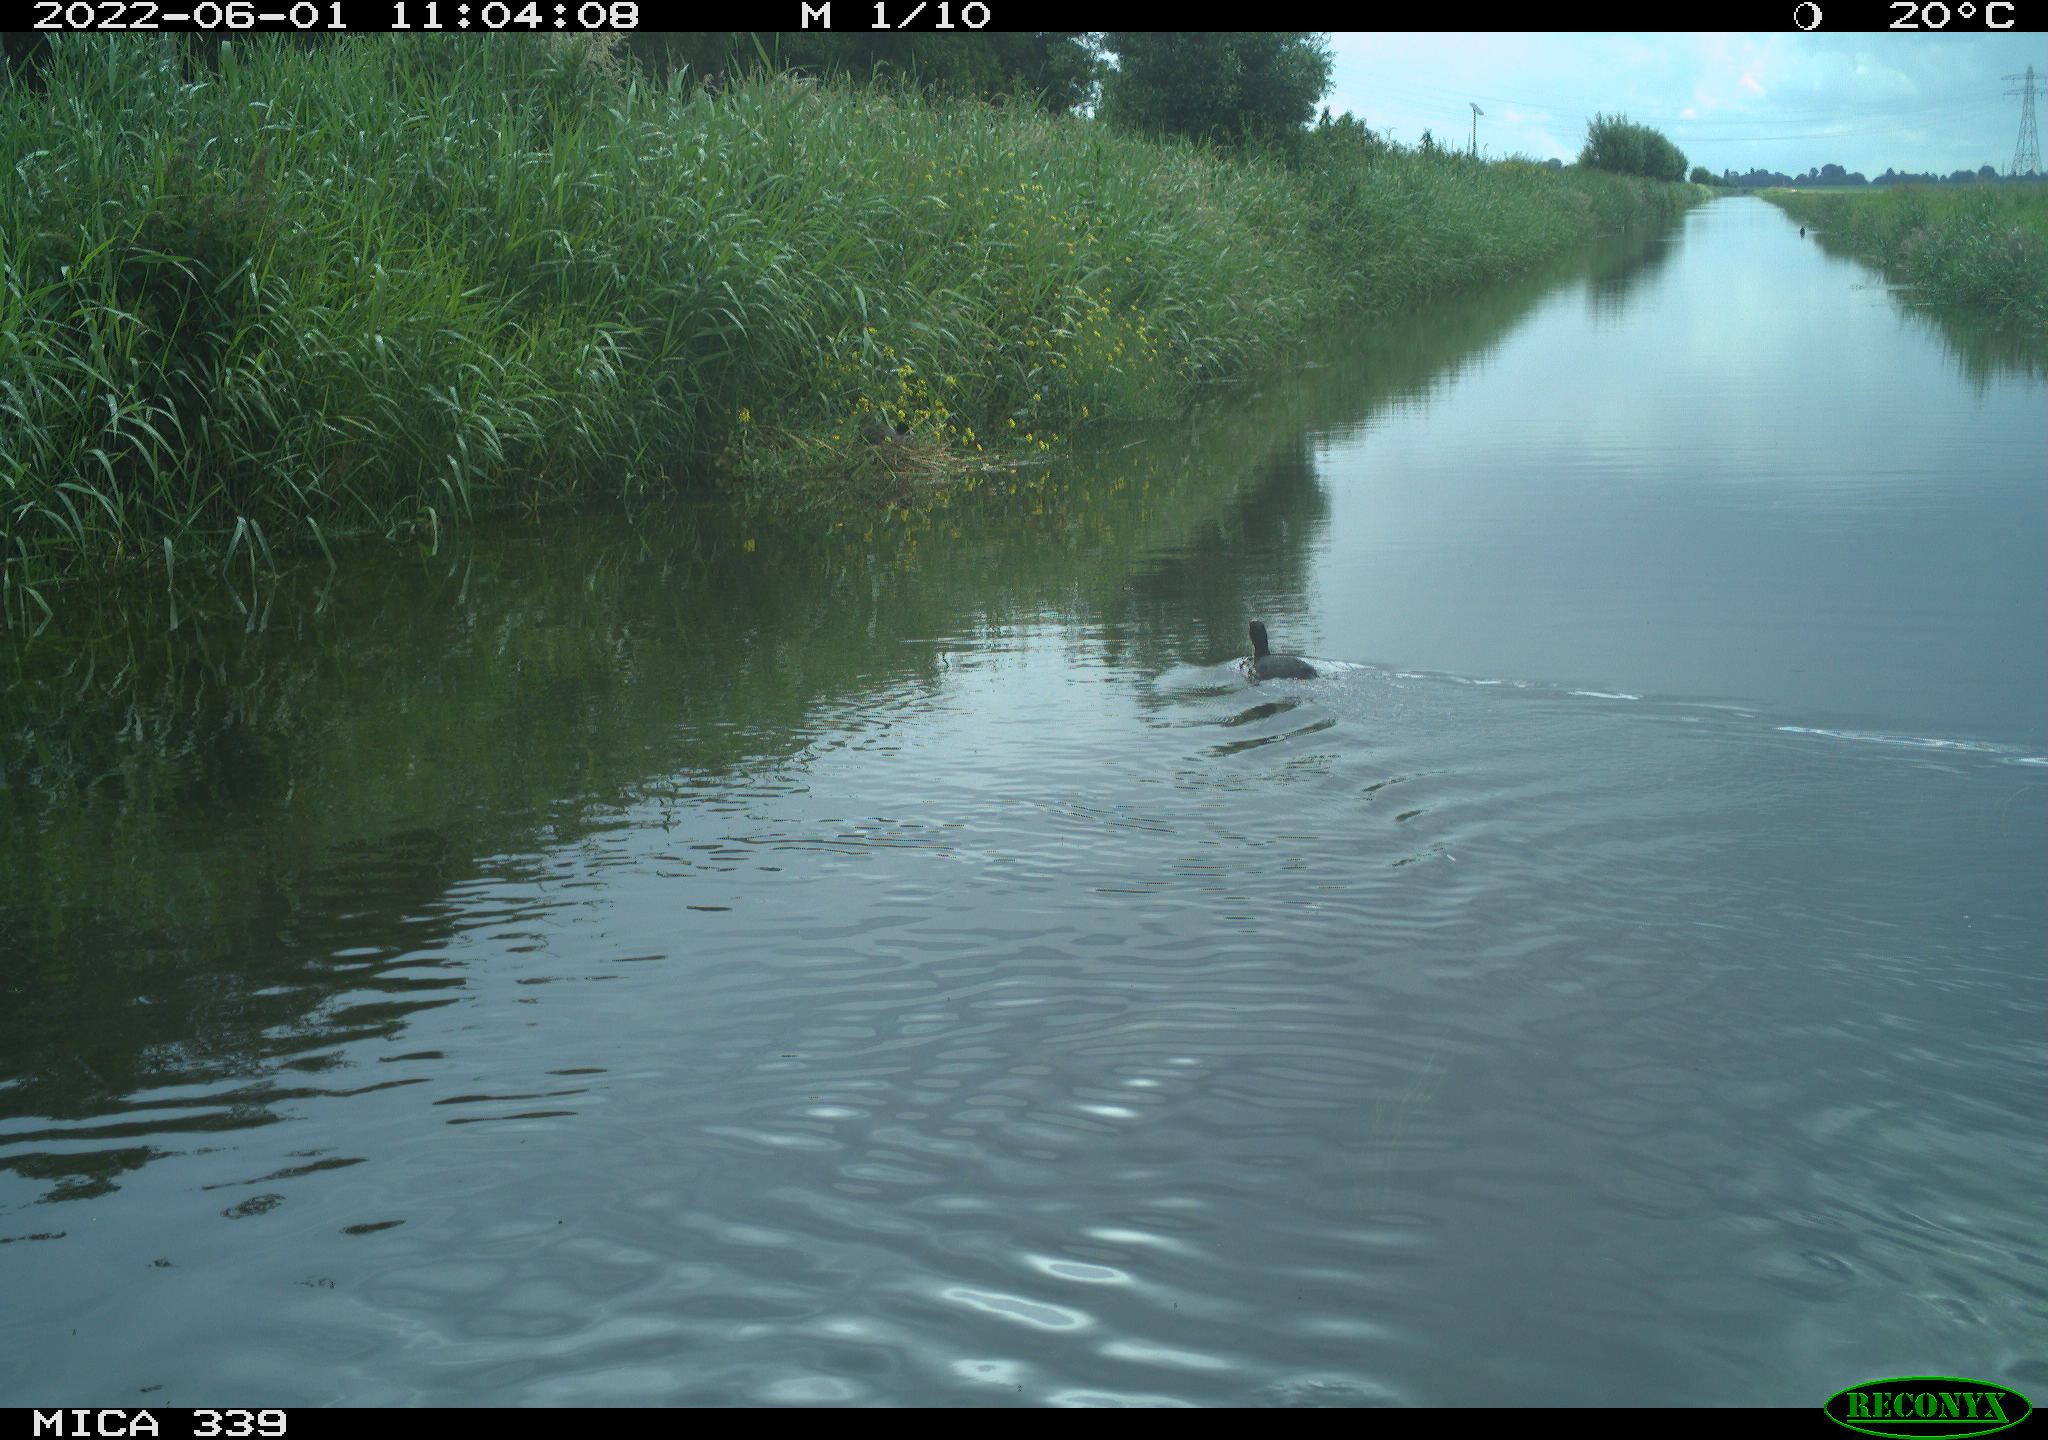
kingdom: Animalia
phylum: Chordata
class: Aves
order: Gruiformes
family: Rallidae
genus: Fulica
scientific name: Fulica atra
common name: Eurasian coot
